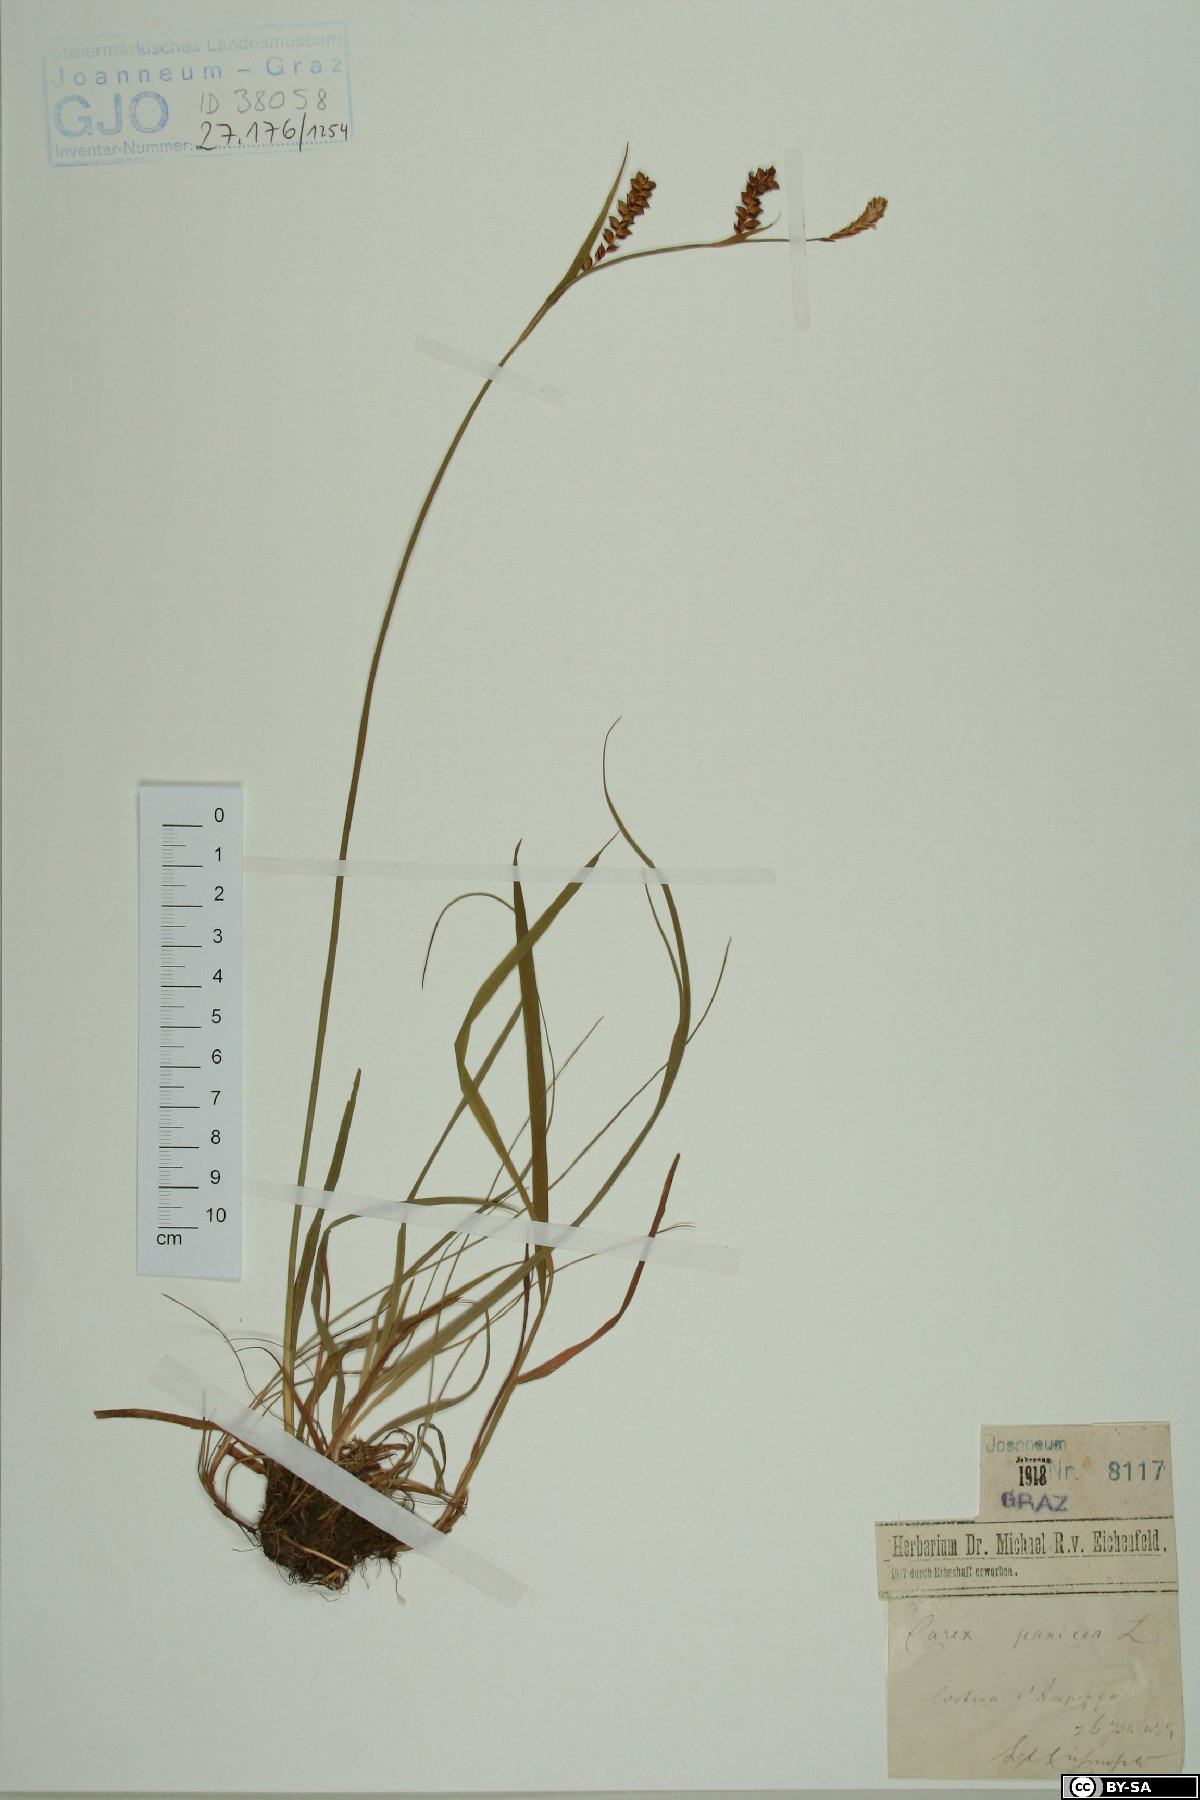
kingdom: Plantae
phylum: Tracheophyta
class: Liliopsida
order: Poales
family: Cyperaceae
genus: Carex
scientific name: Carex panicea
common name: Carnation sedge
